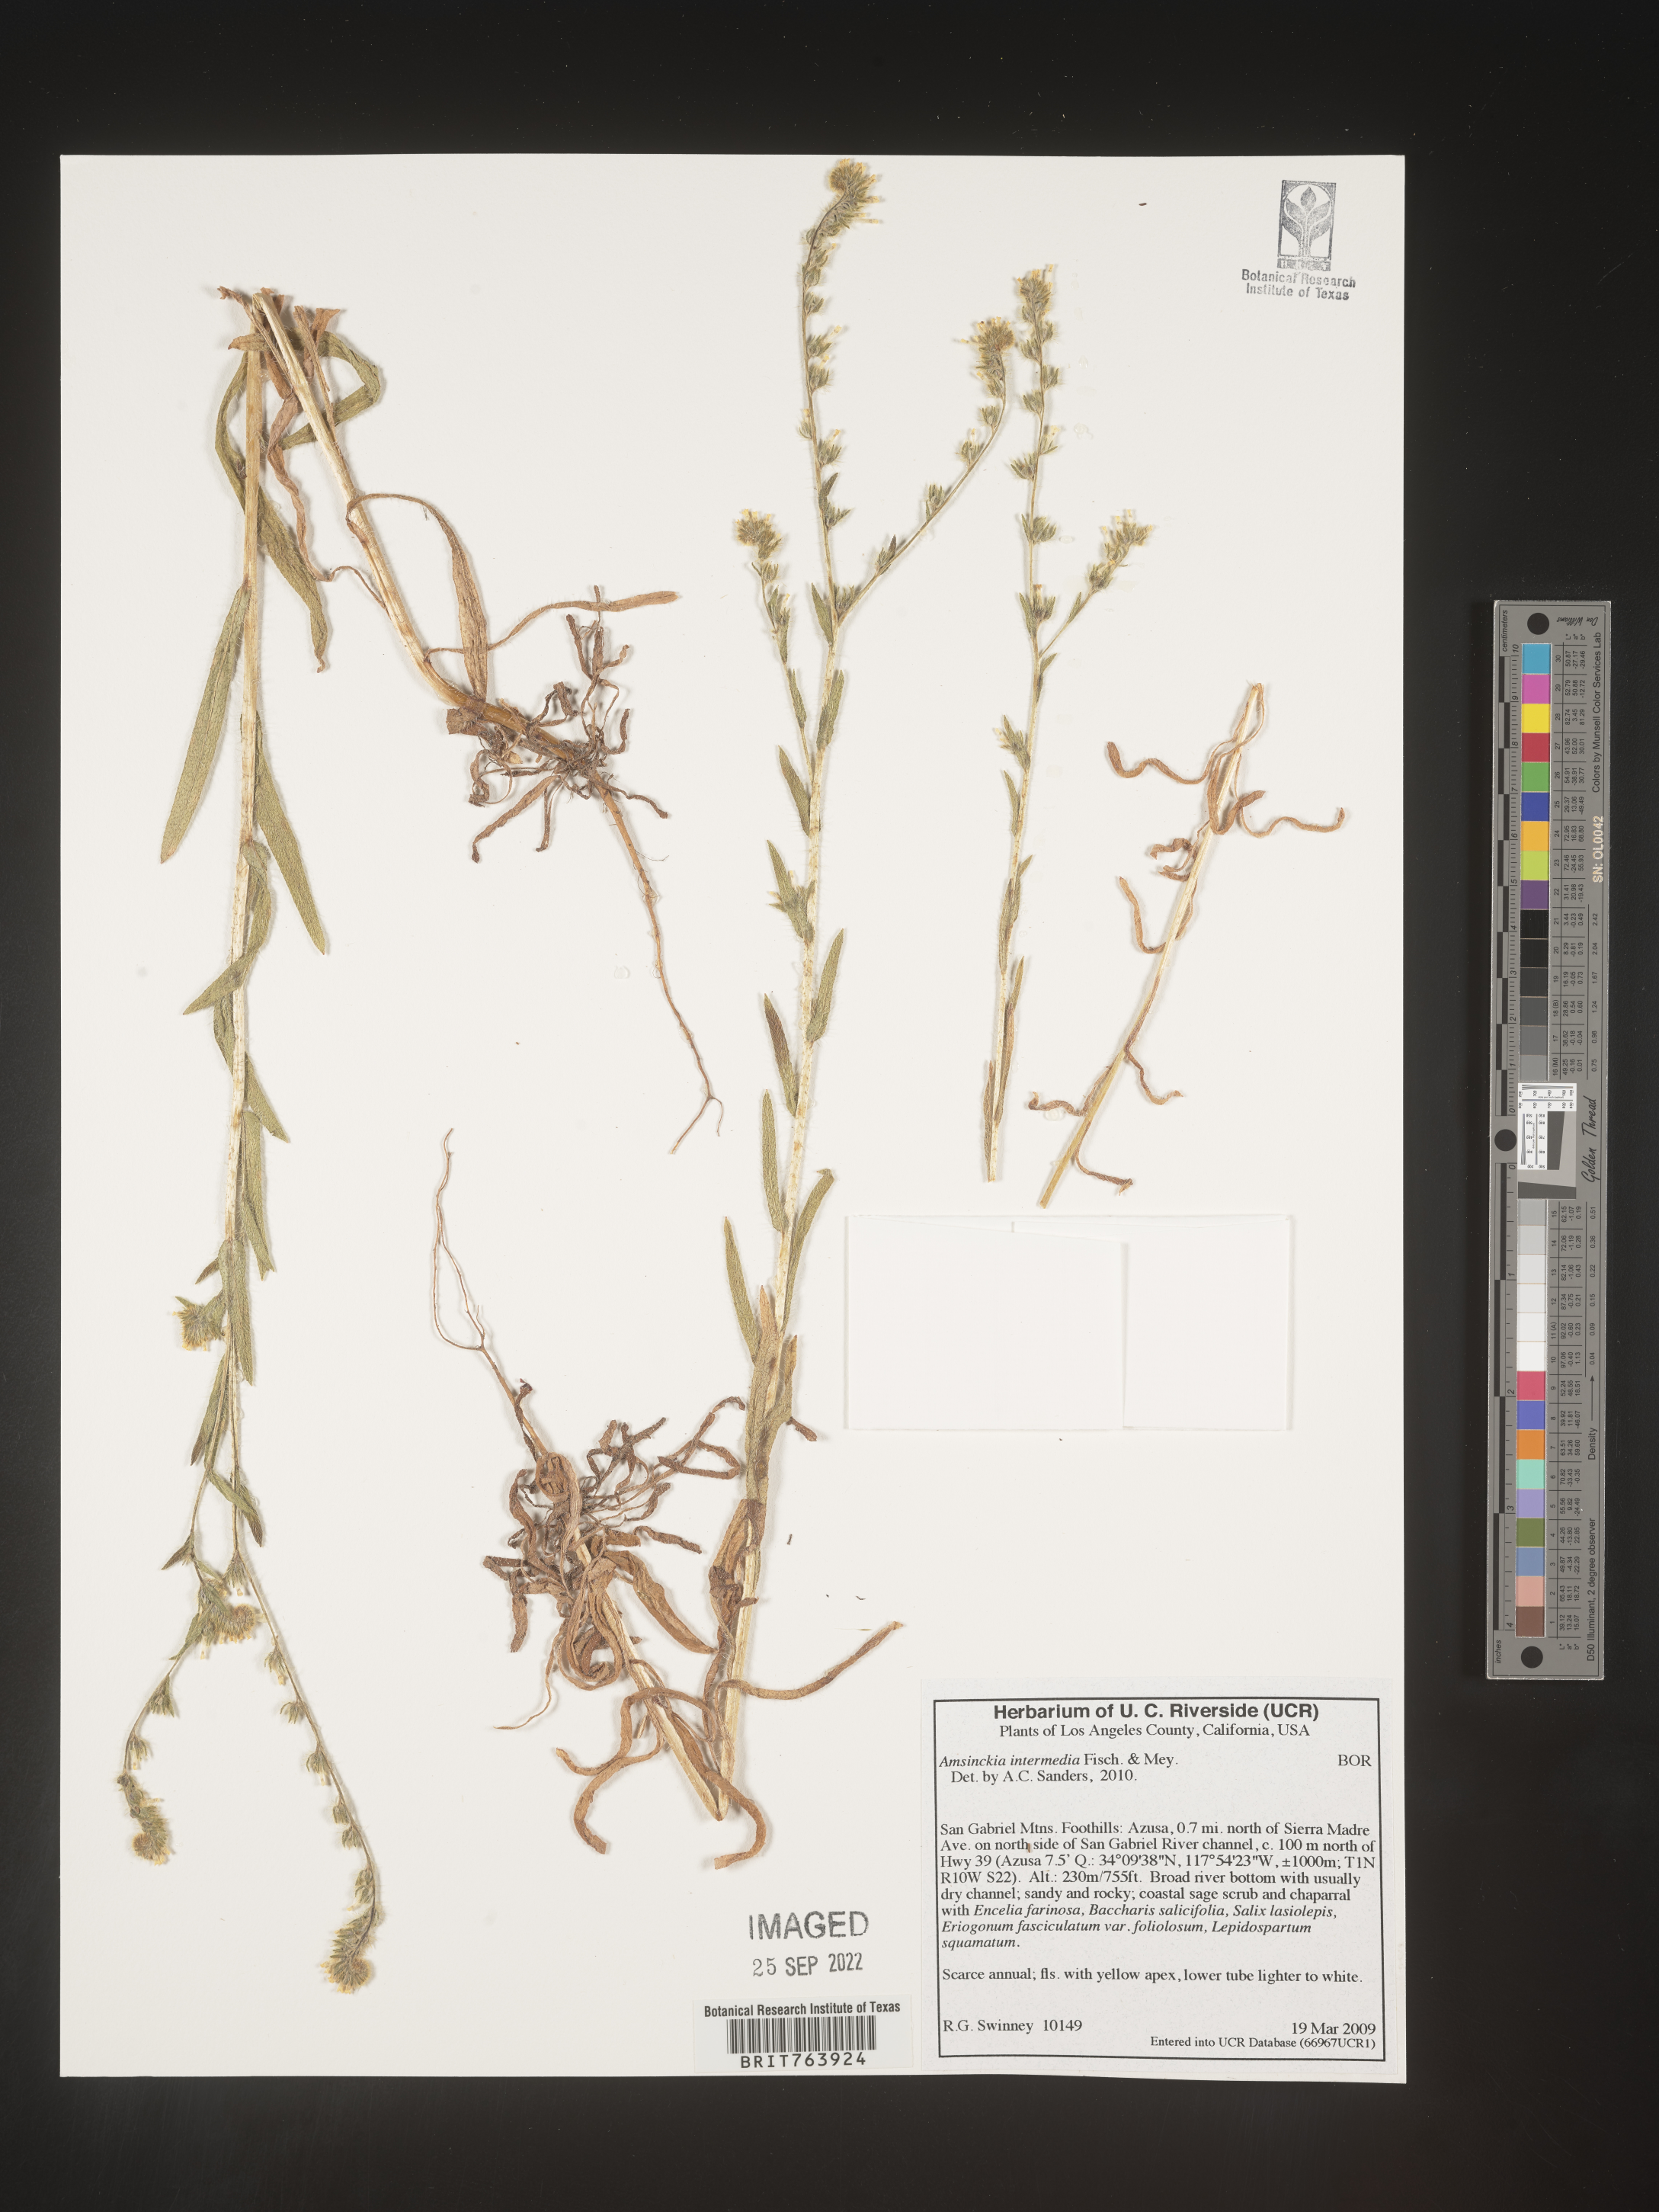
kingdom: Plantae
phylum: Tracheophyta
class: Magnoliopsida
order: Boraginales
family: Boraginaceae
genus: Amsinckia
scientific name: Amsinckia
